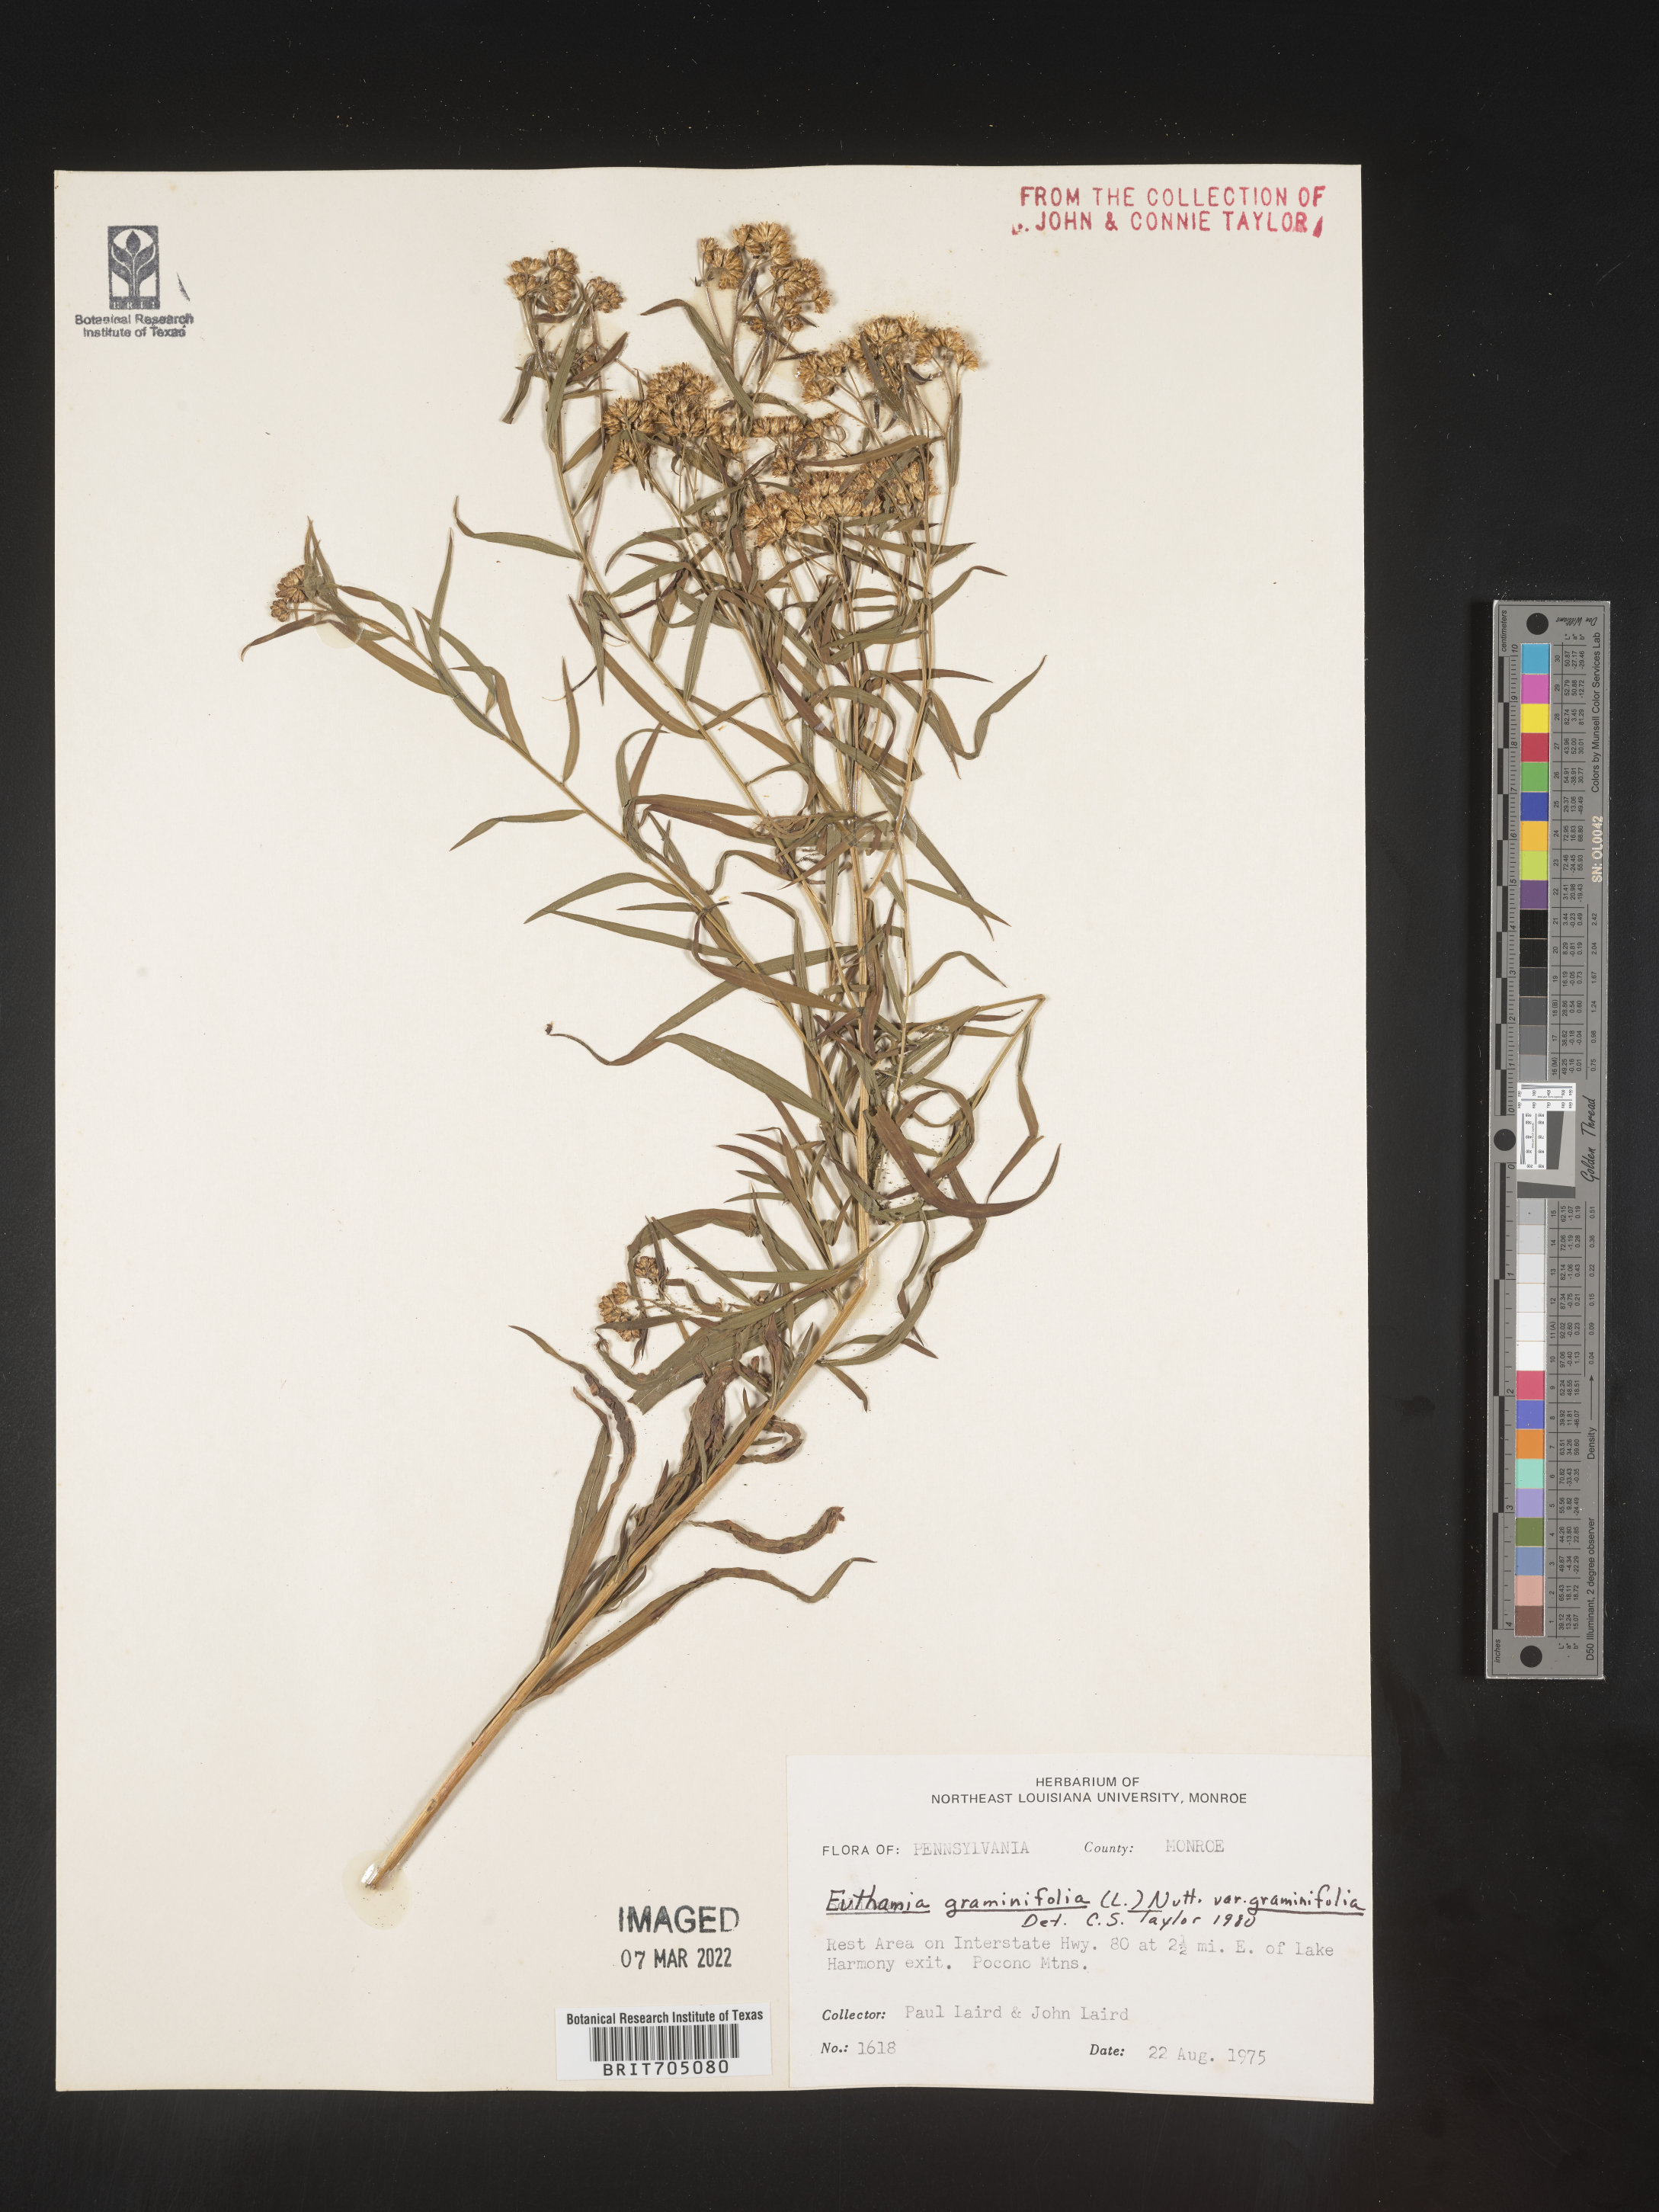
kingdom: Plantae
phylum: Tracheophyta
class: Magnoliopsida
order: Asterales
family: Asteraceae
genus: Euthamia
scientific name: Euthamia graminifolia
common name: Common goldentop
